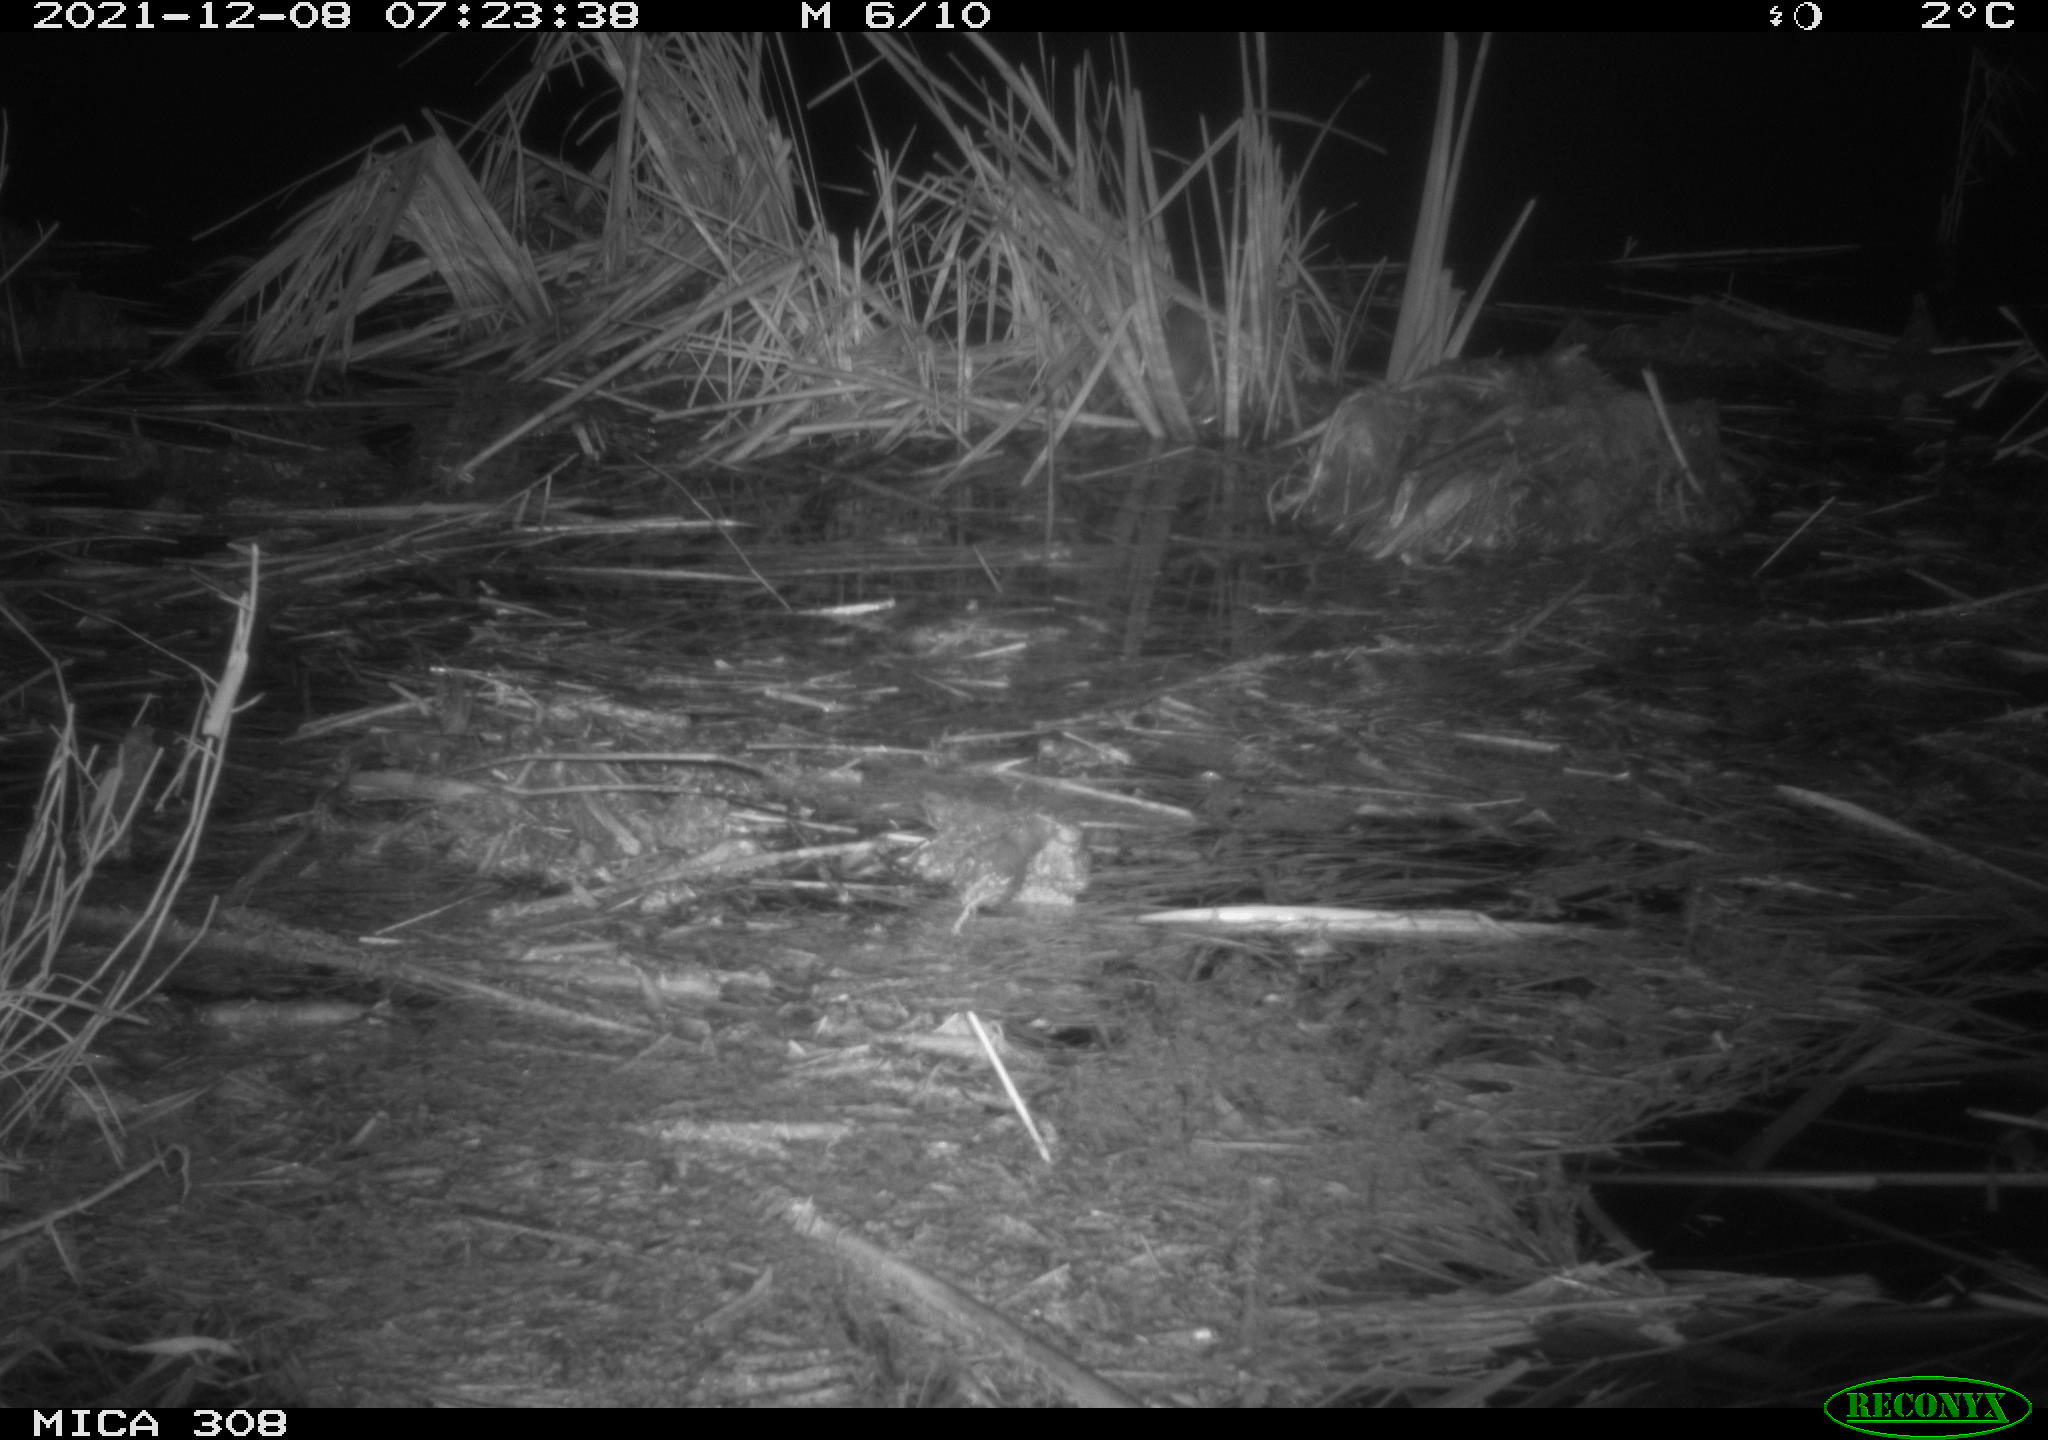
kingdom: Animalia
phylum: Chordata
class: Mammalia
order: Rodentia
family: Muridae
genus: Rattus
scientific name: Rattus norvegicus
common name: Brown rat
